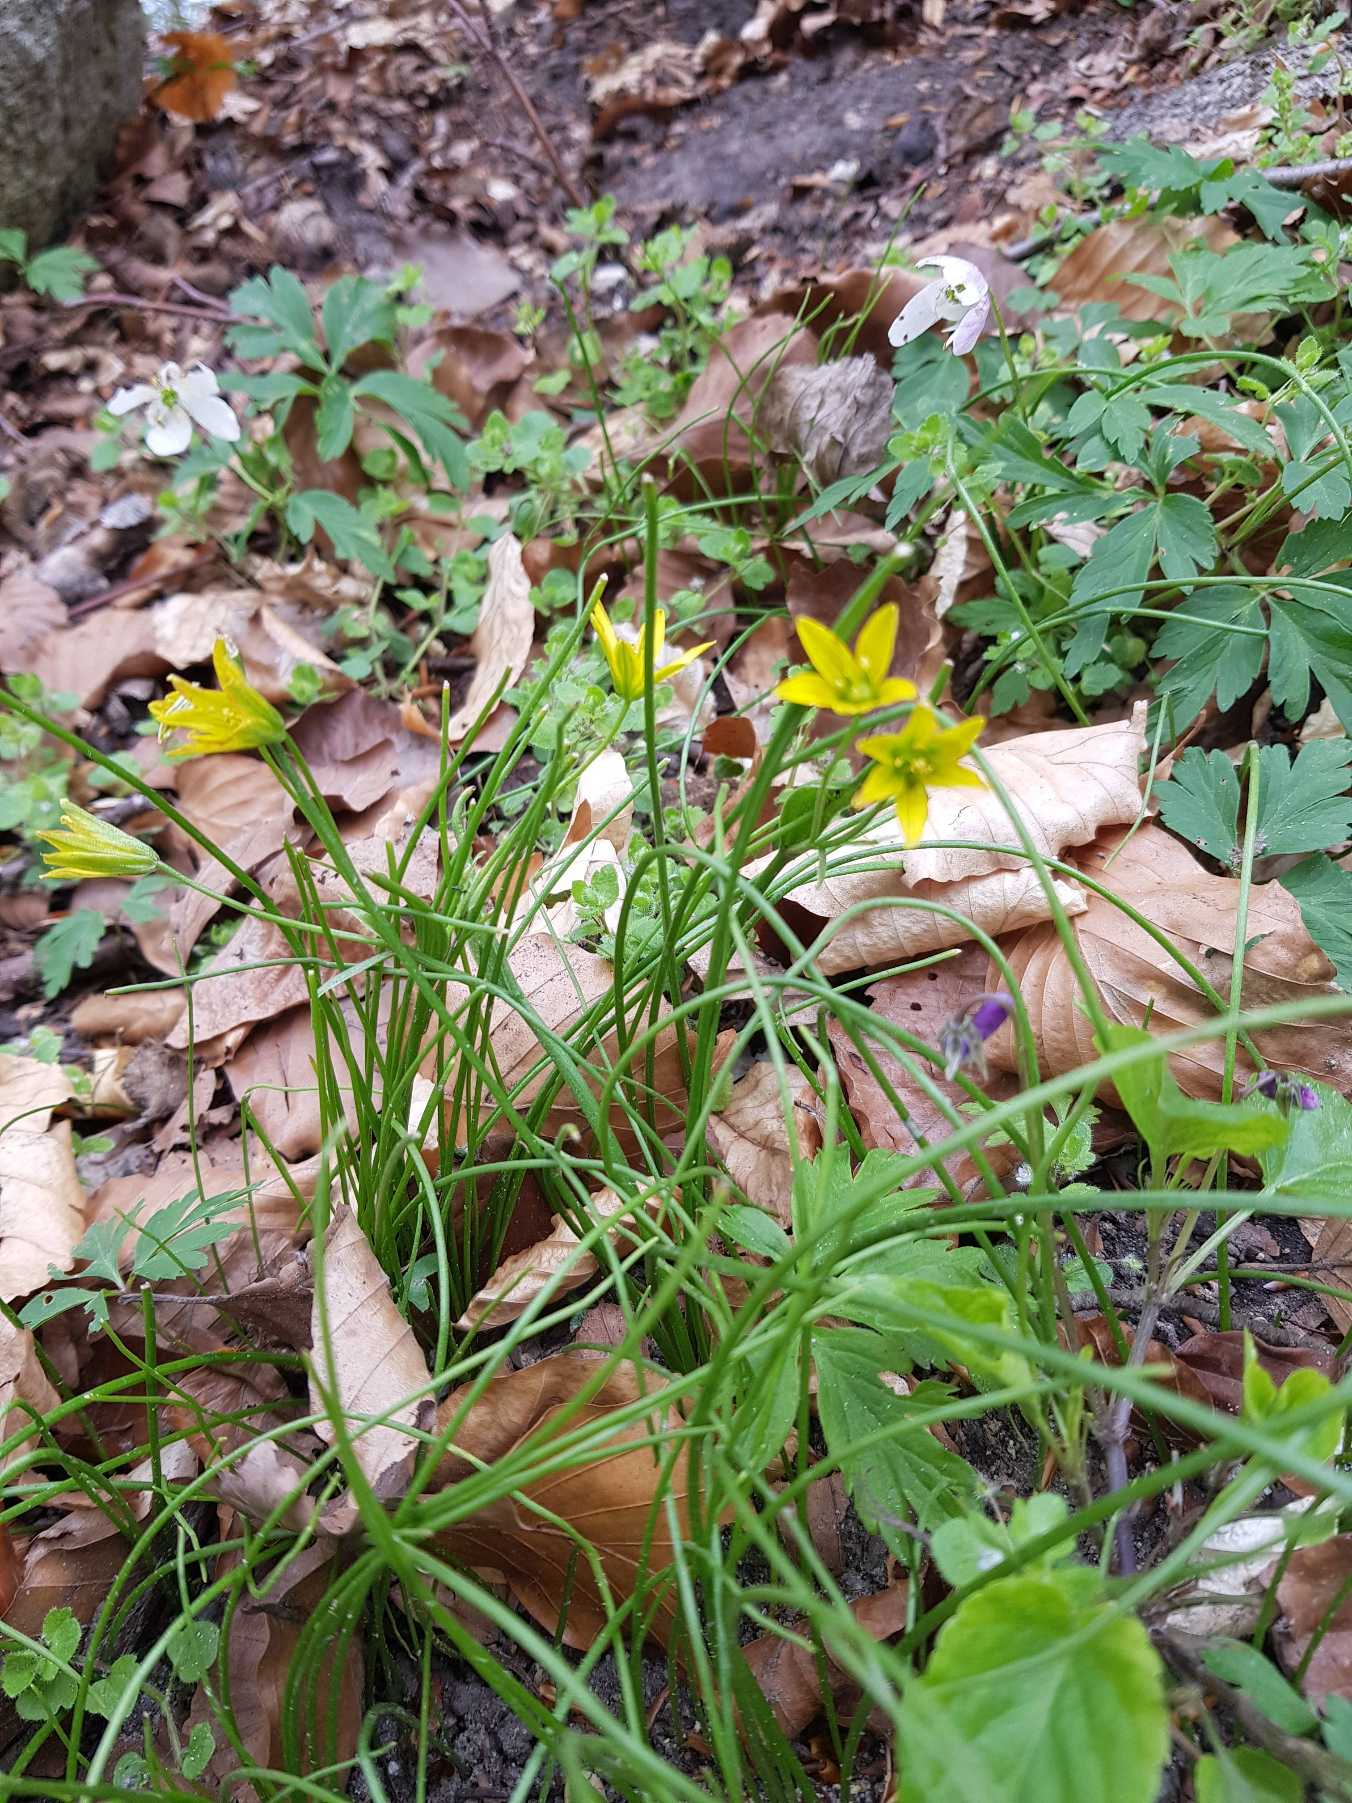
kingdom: Plantae
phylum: Tracheophyta
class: Liliopsida
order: Liliales
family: Liliaceae
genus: Gagea
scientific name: Gagea spathacea
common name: Hylster-guldstjerne
